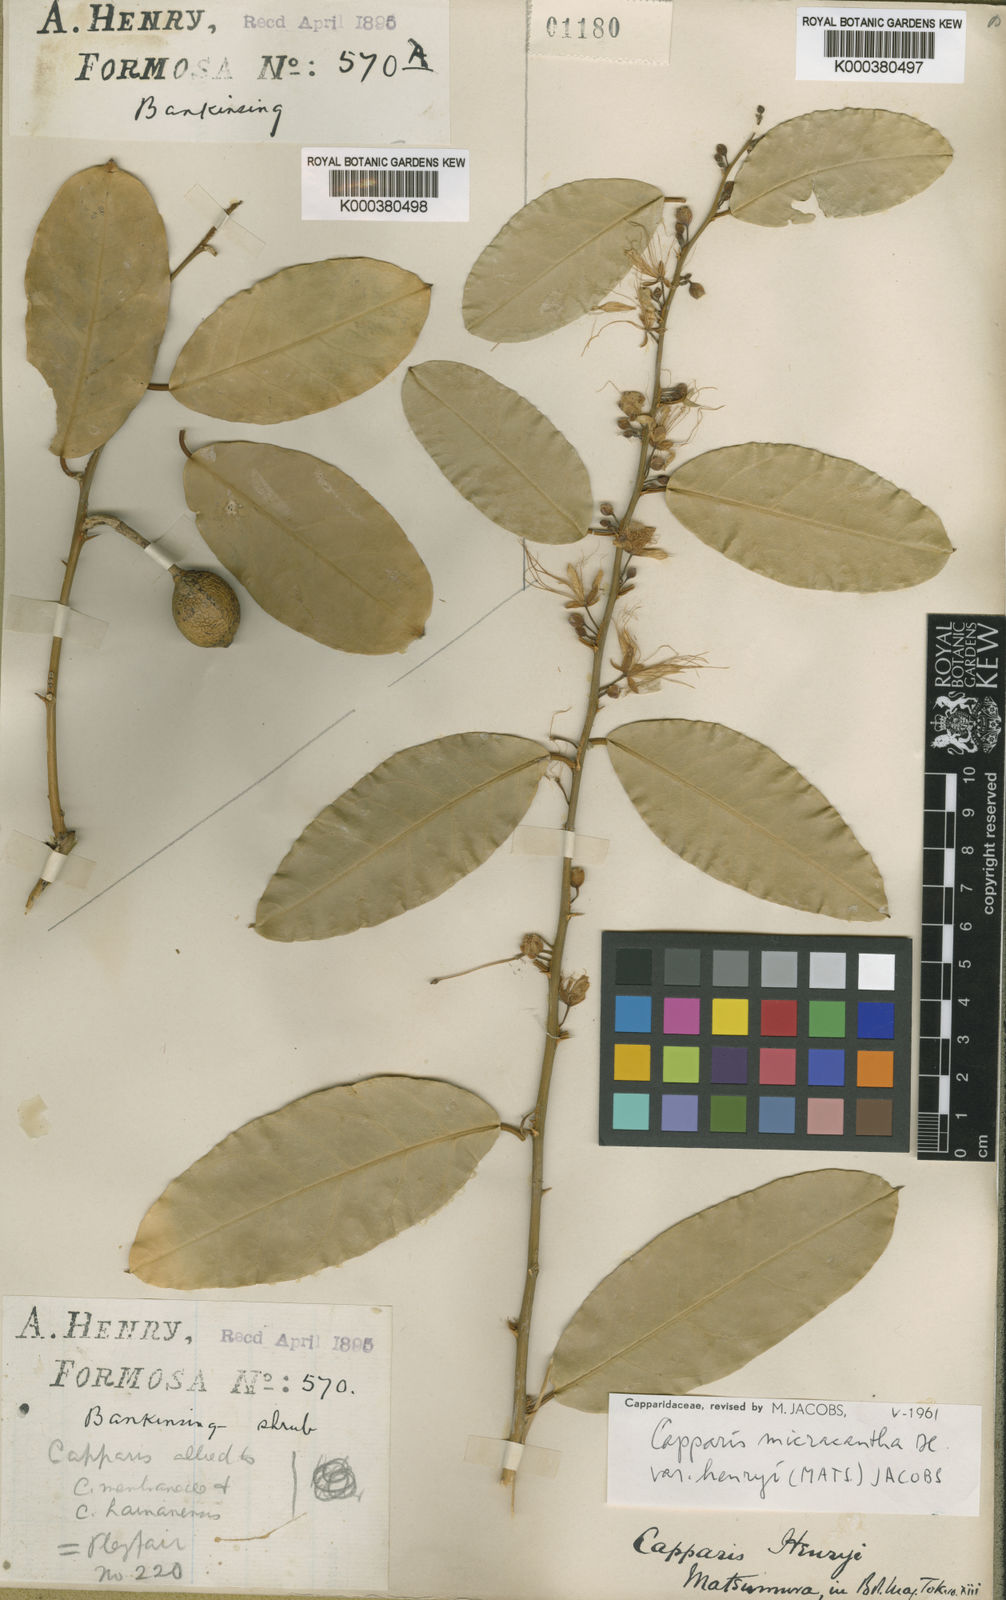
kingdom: Plantae
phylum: Tracheophyta
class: Magnoliopsida
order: Brassicales
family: Capparaceae
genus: Capparis
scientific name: Capparis micrantha
